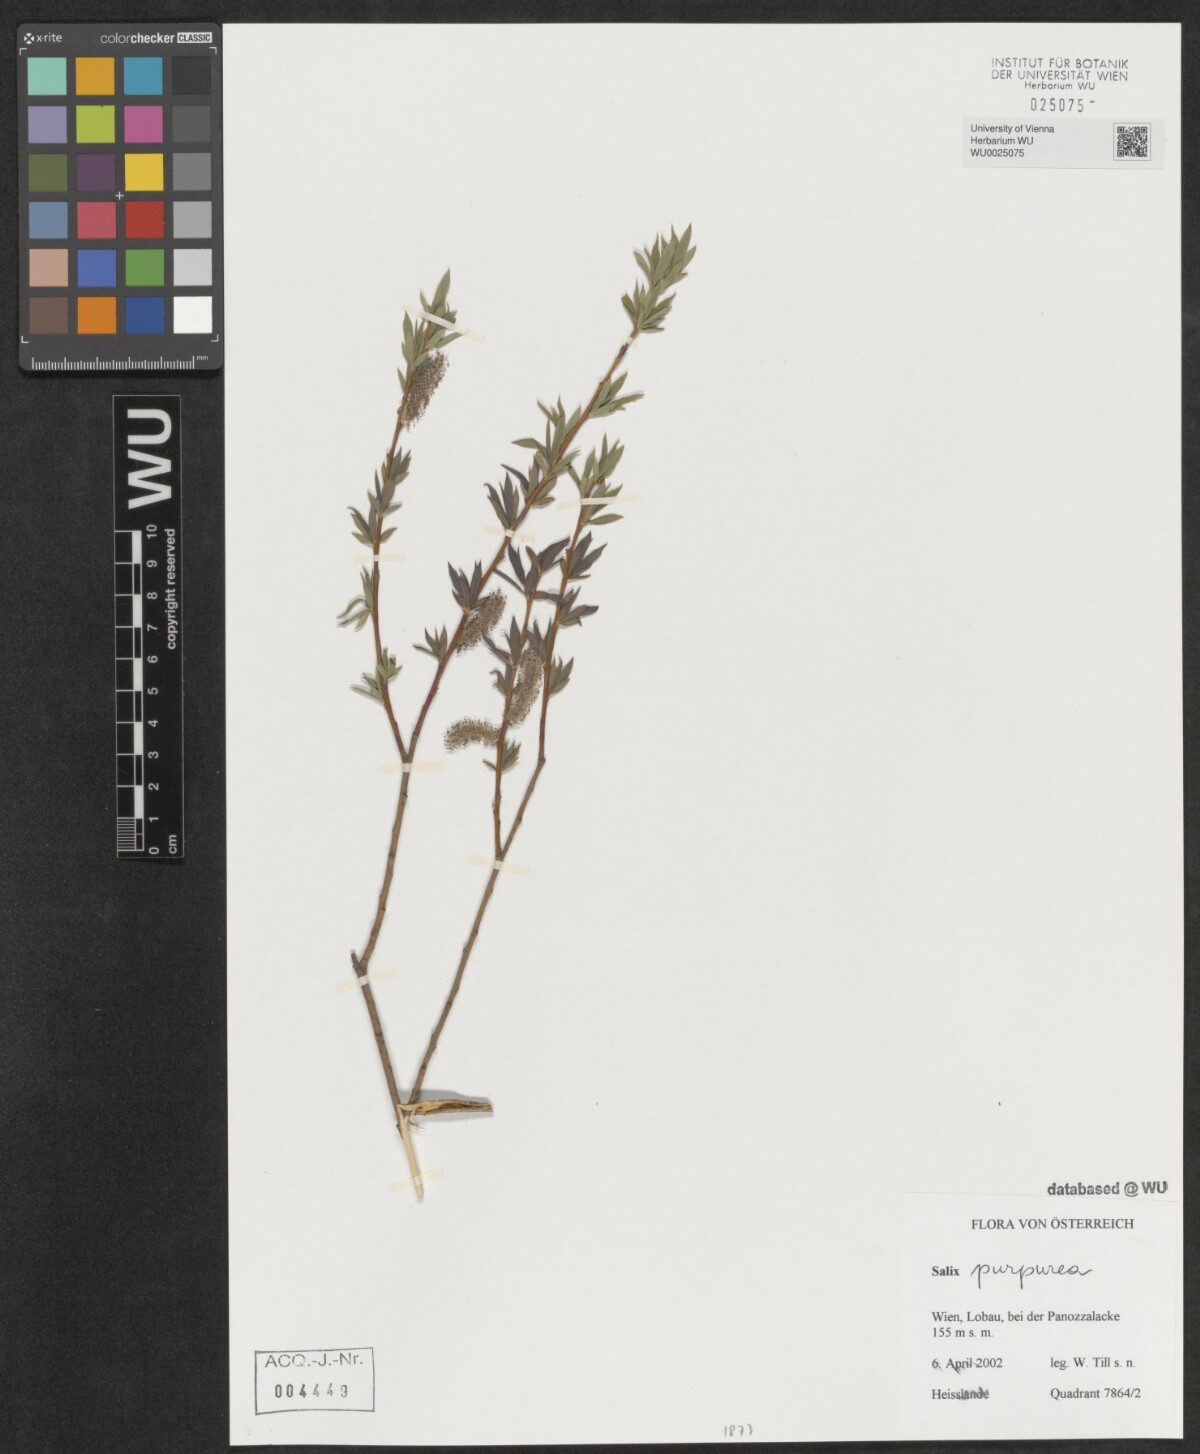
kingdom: Plantae
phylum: Tracheophyta
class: Magnoliopsida
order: Malpighiales
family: Salicaceae
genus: Salix
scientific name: Salix purpurea
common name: Purple willow
